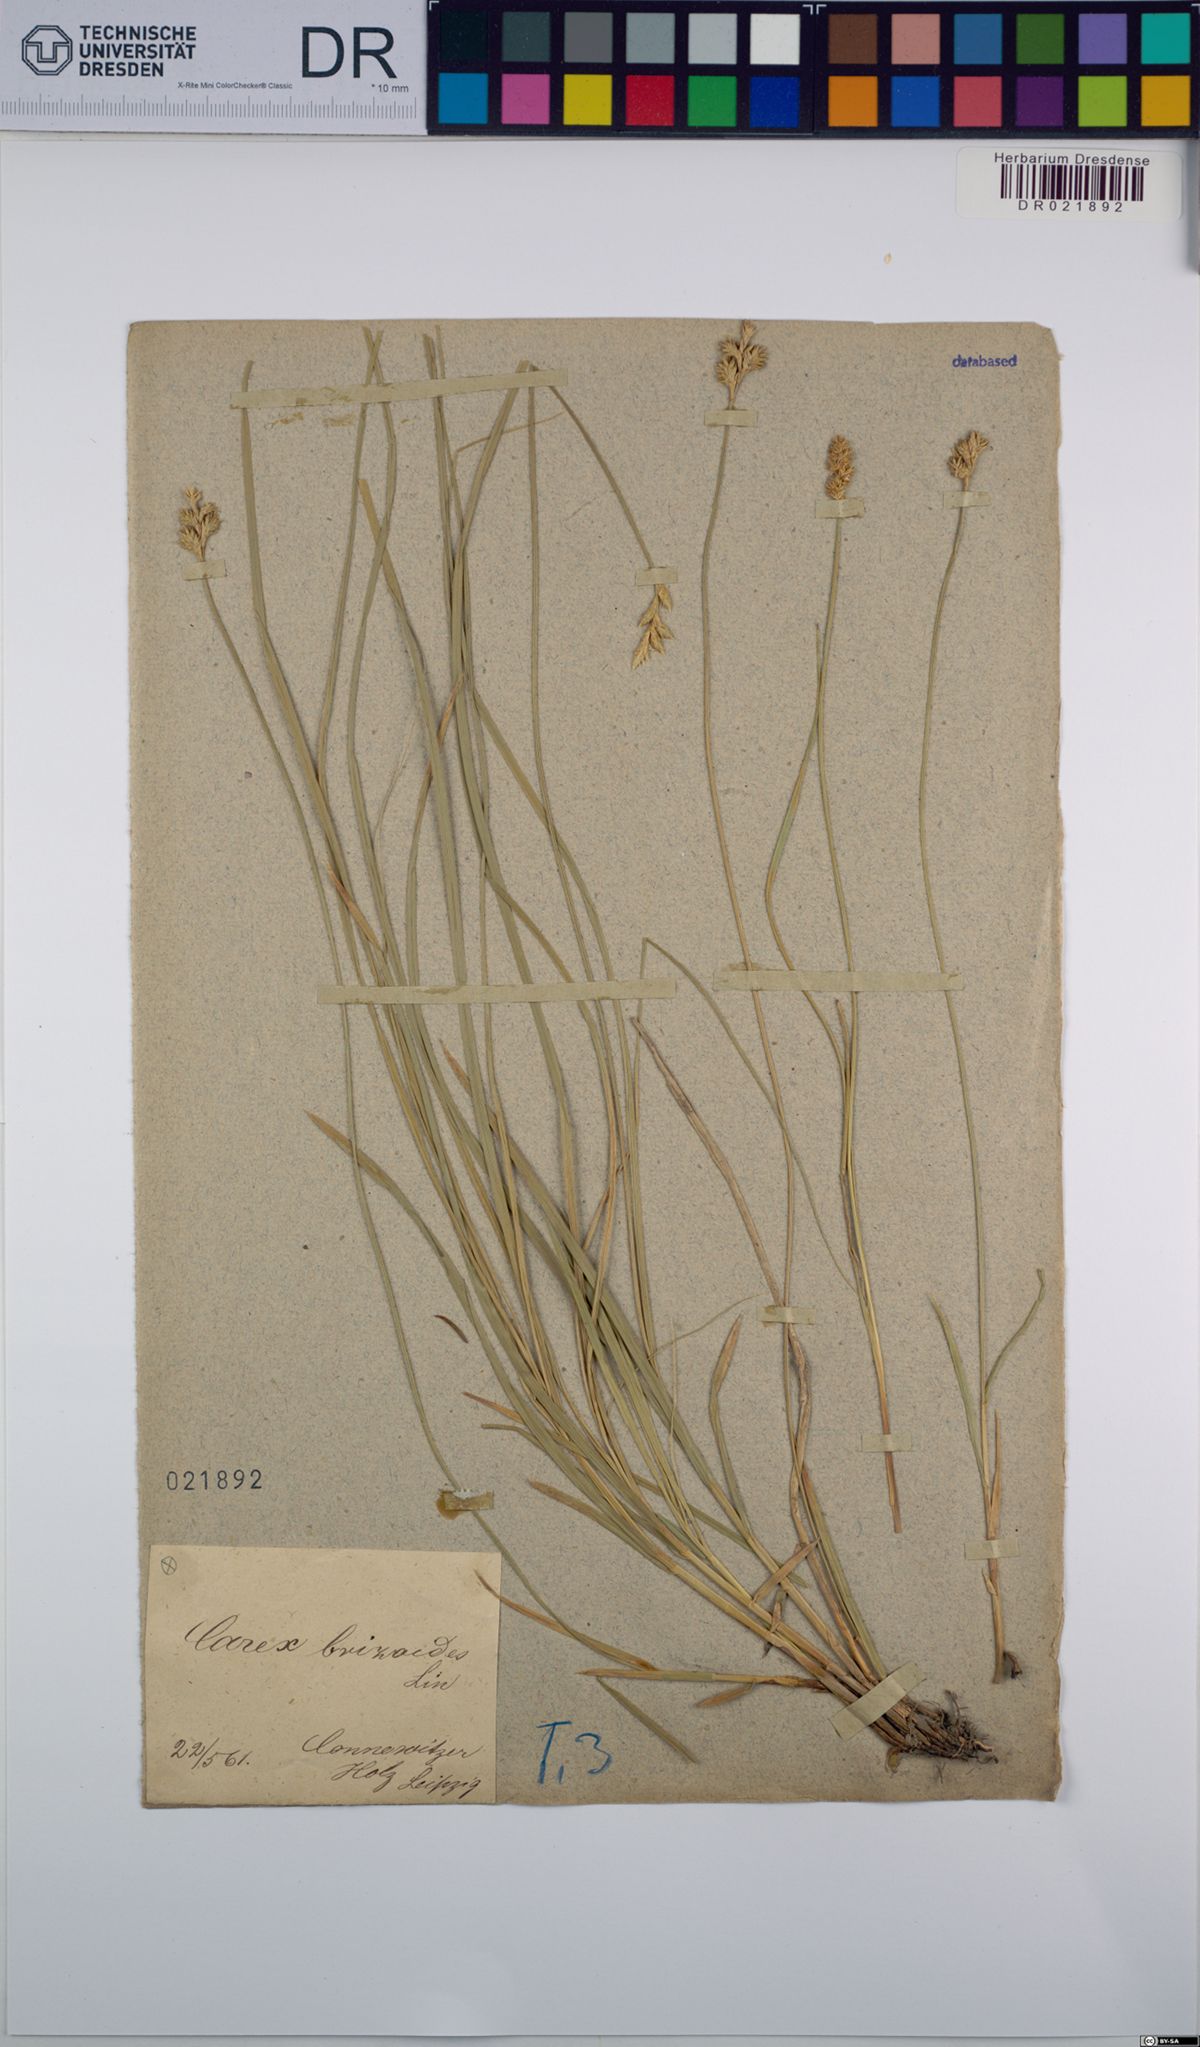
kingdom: Plantae
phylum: Tracheophyta
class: Liliopsida
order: Poales
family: Cyperaceae
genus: Carex
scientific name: Carex brizoides
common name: Quaking-grass sedge
